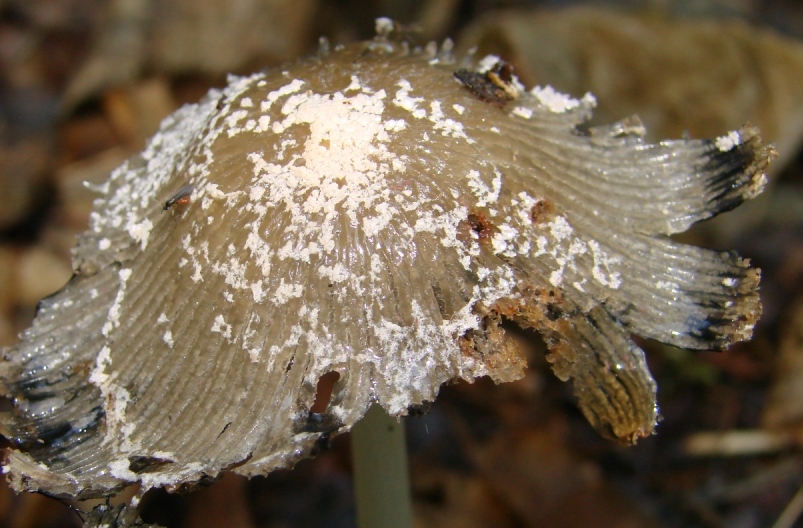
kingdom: Fungi
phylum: Basidiomycota
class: Agaricomycetes
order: Agaricales
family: Psathyrellaceae
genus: Coprinellus
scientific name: Coprinellus flocculosus
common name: fnugget blækhat
